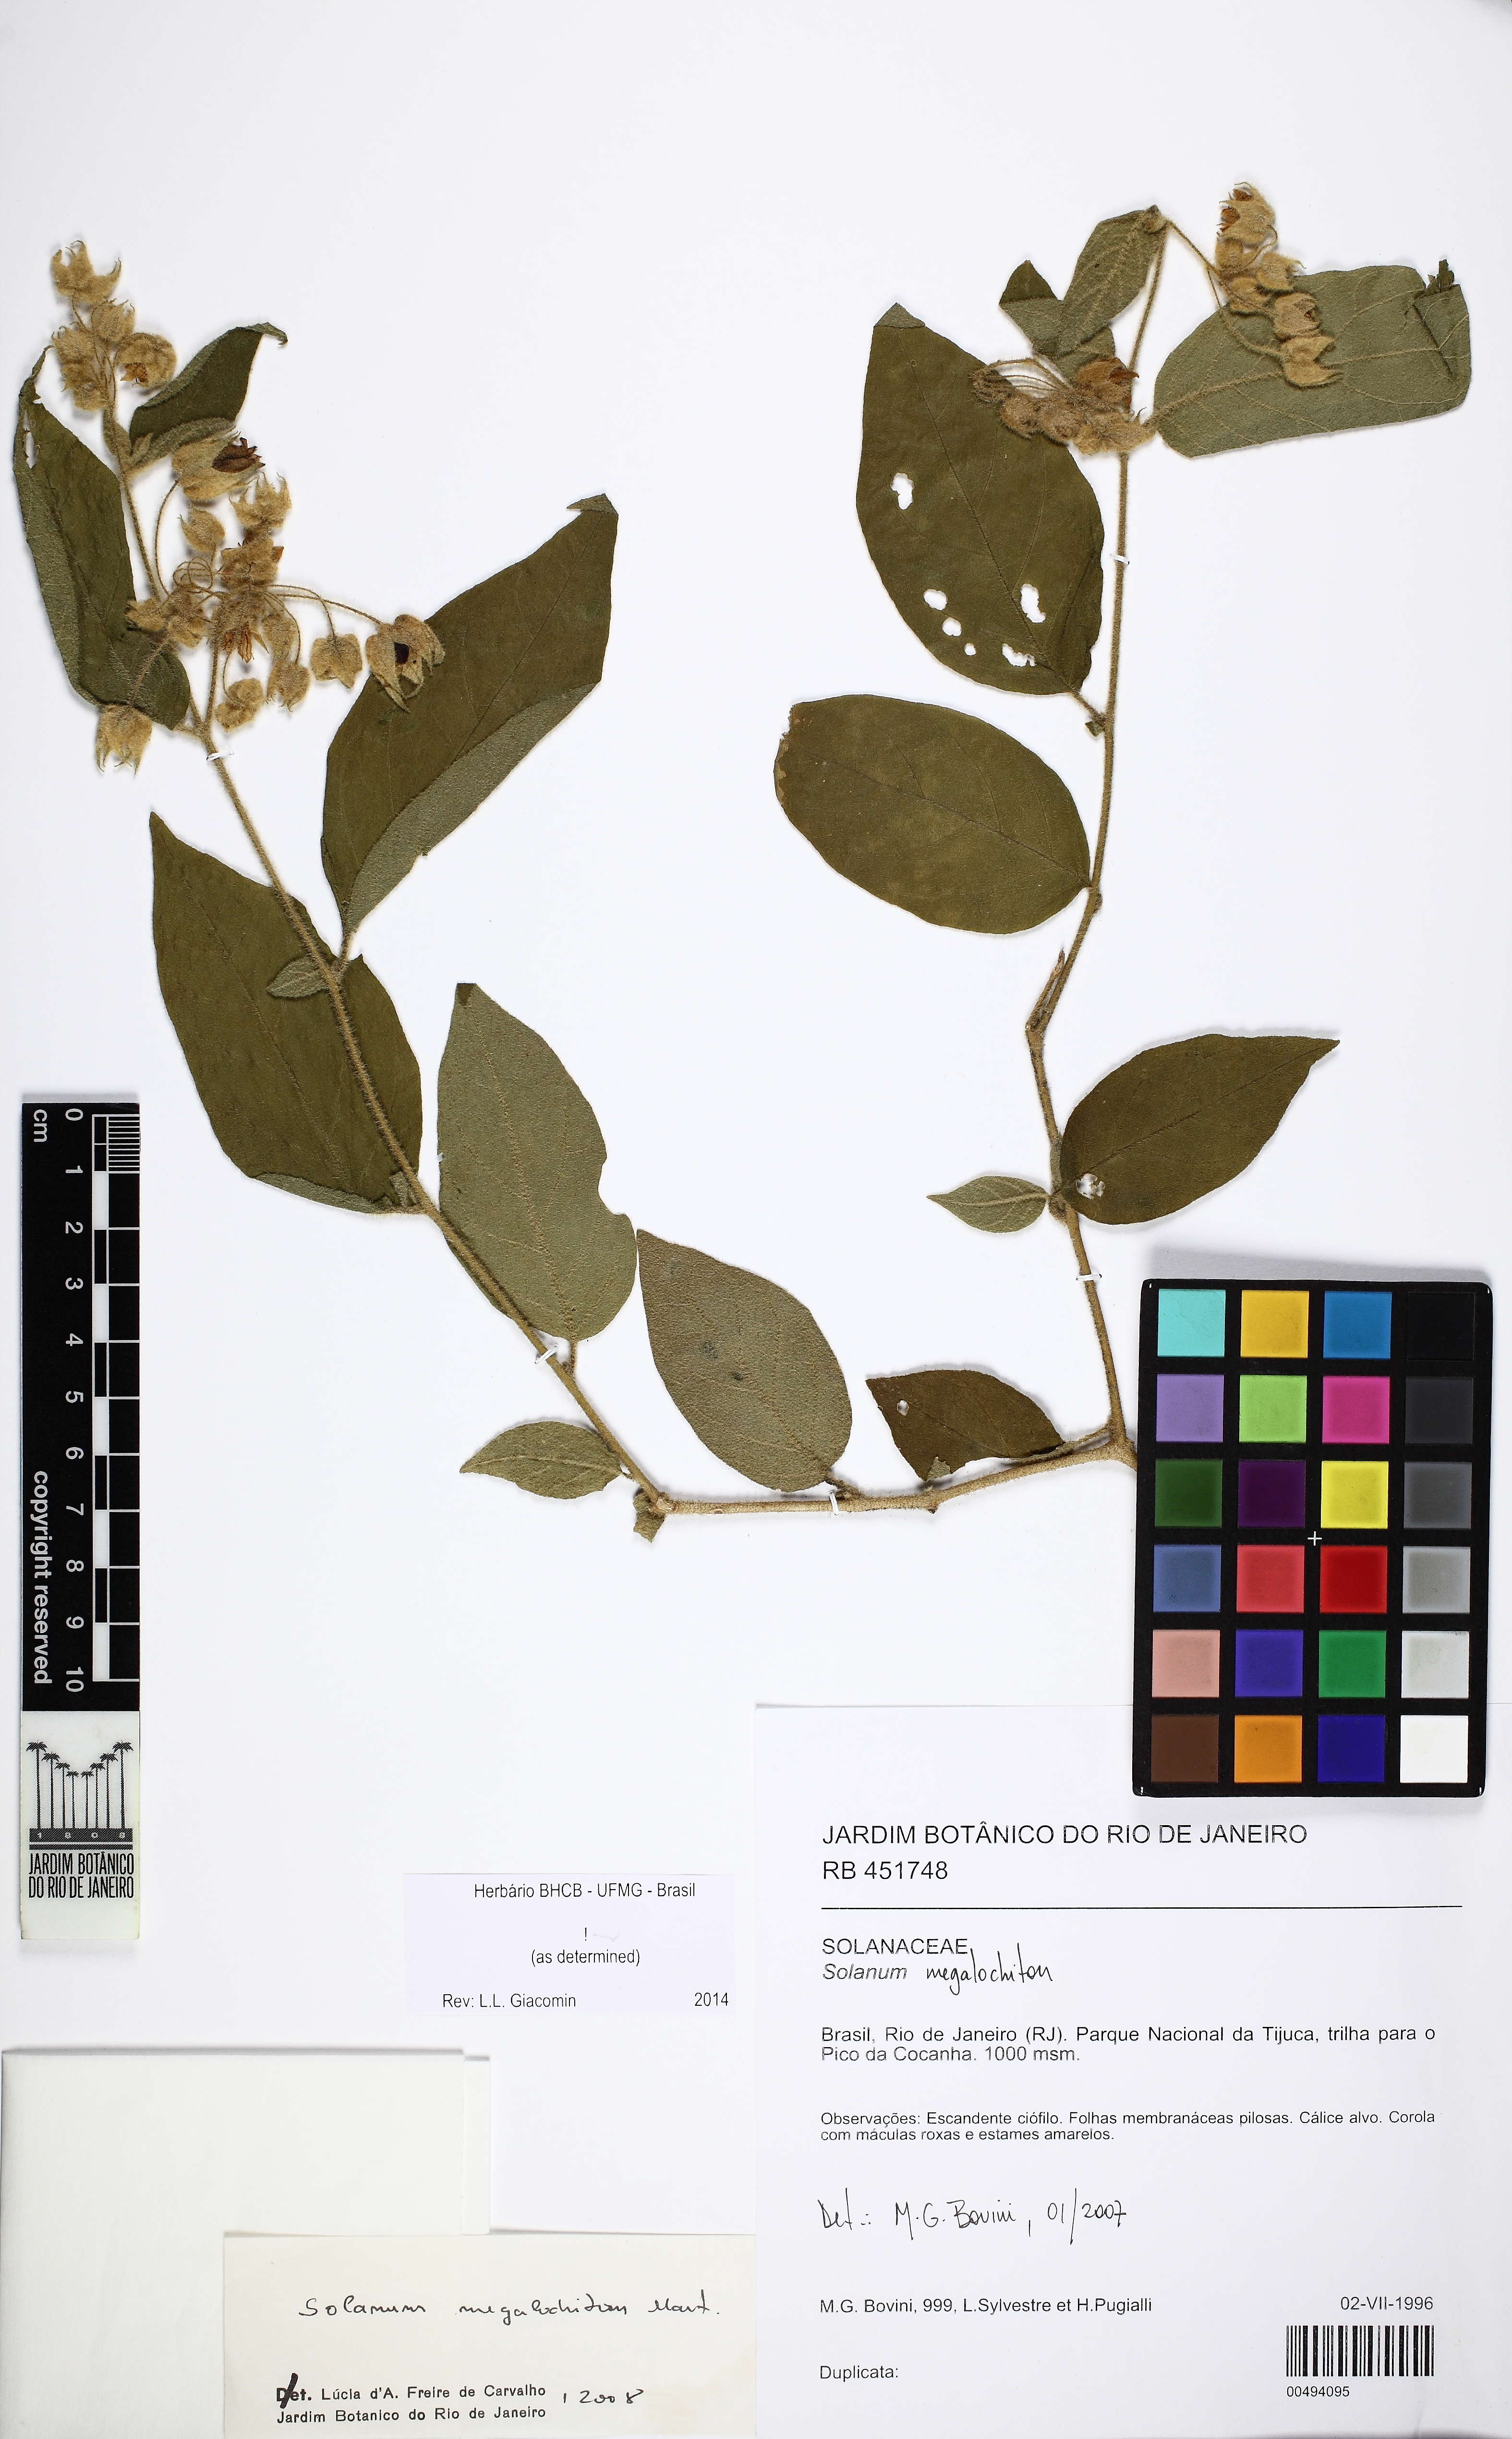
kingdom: Plantae
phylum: Tracheophyta
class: Magnoliopsida
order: Solanales
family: Solanaceae
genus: Solanum
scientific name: Solanum megalochiton
